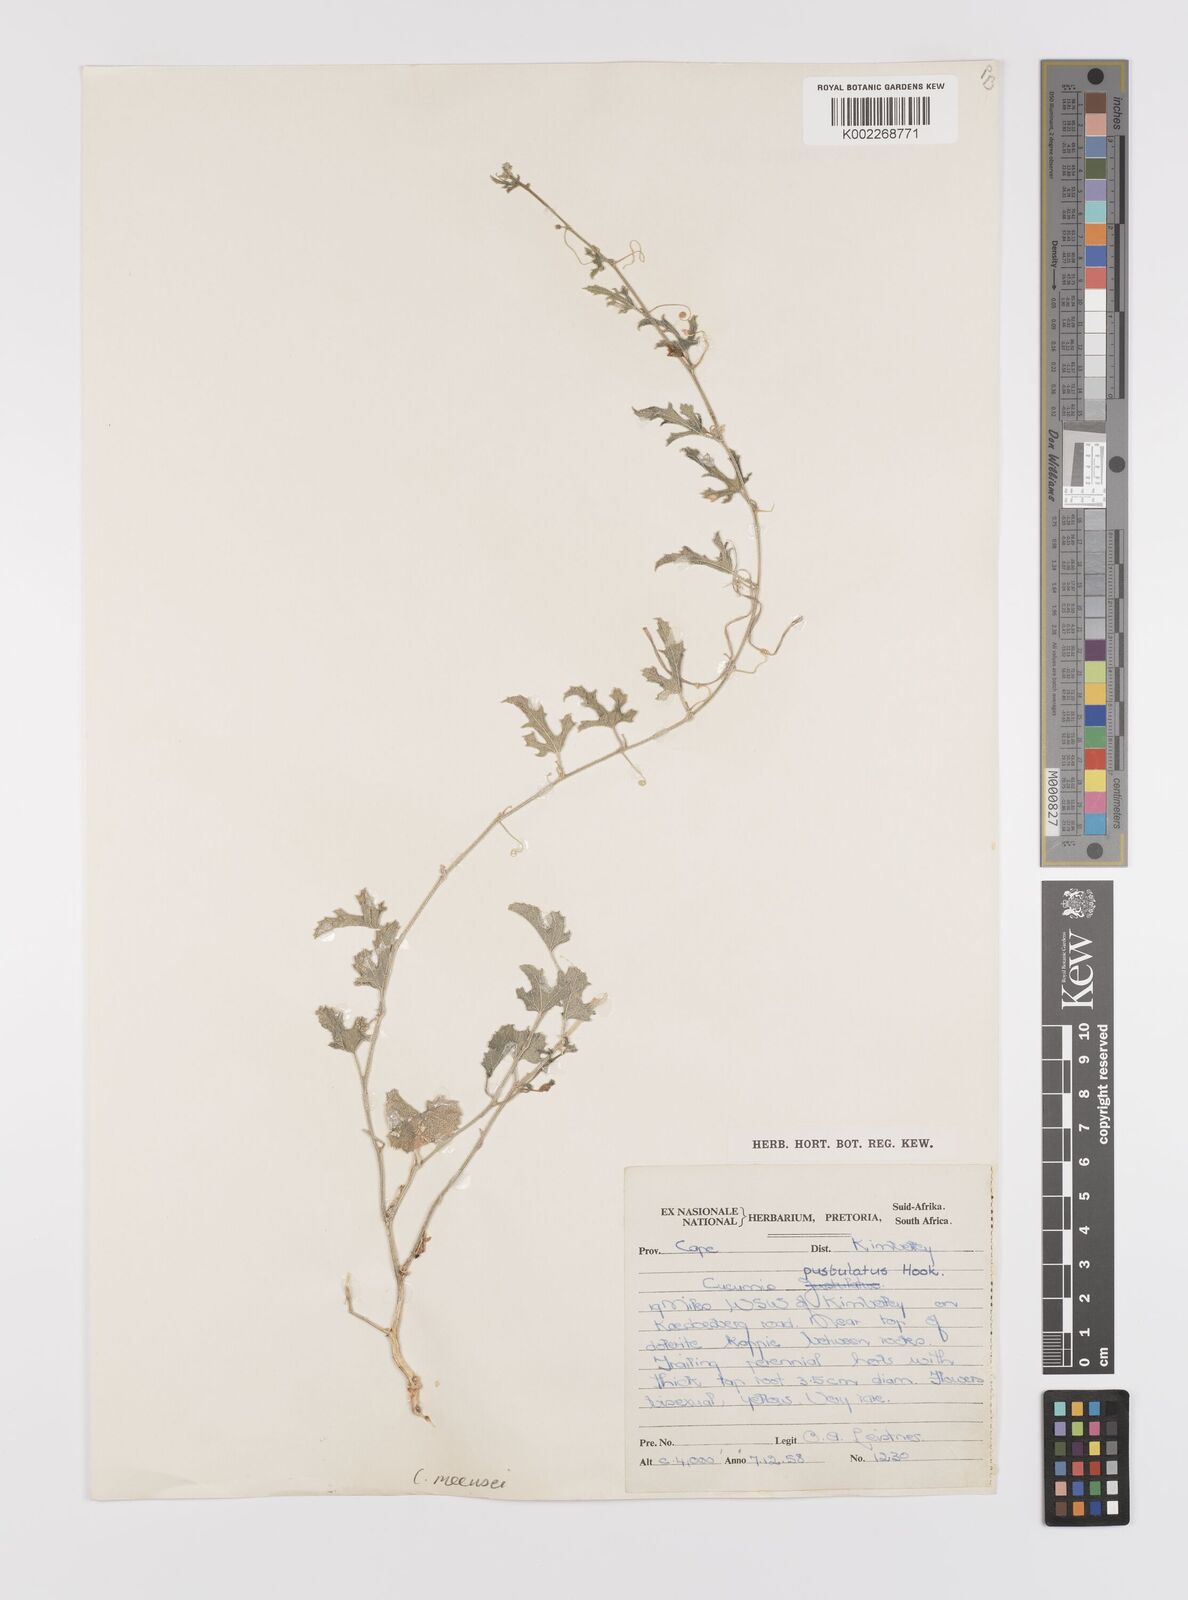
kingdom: Plantae
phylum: Tracheophyta
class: Magnoliopsida
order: Cucurbitales
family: Cucurbitaceae
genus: Cucumis
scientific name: Cucumis meeusei
